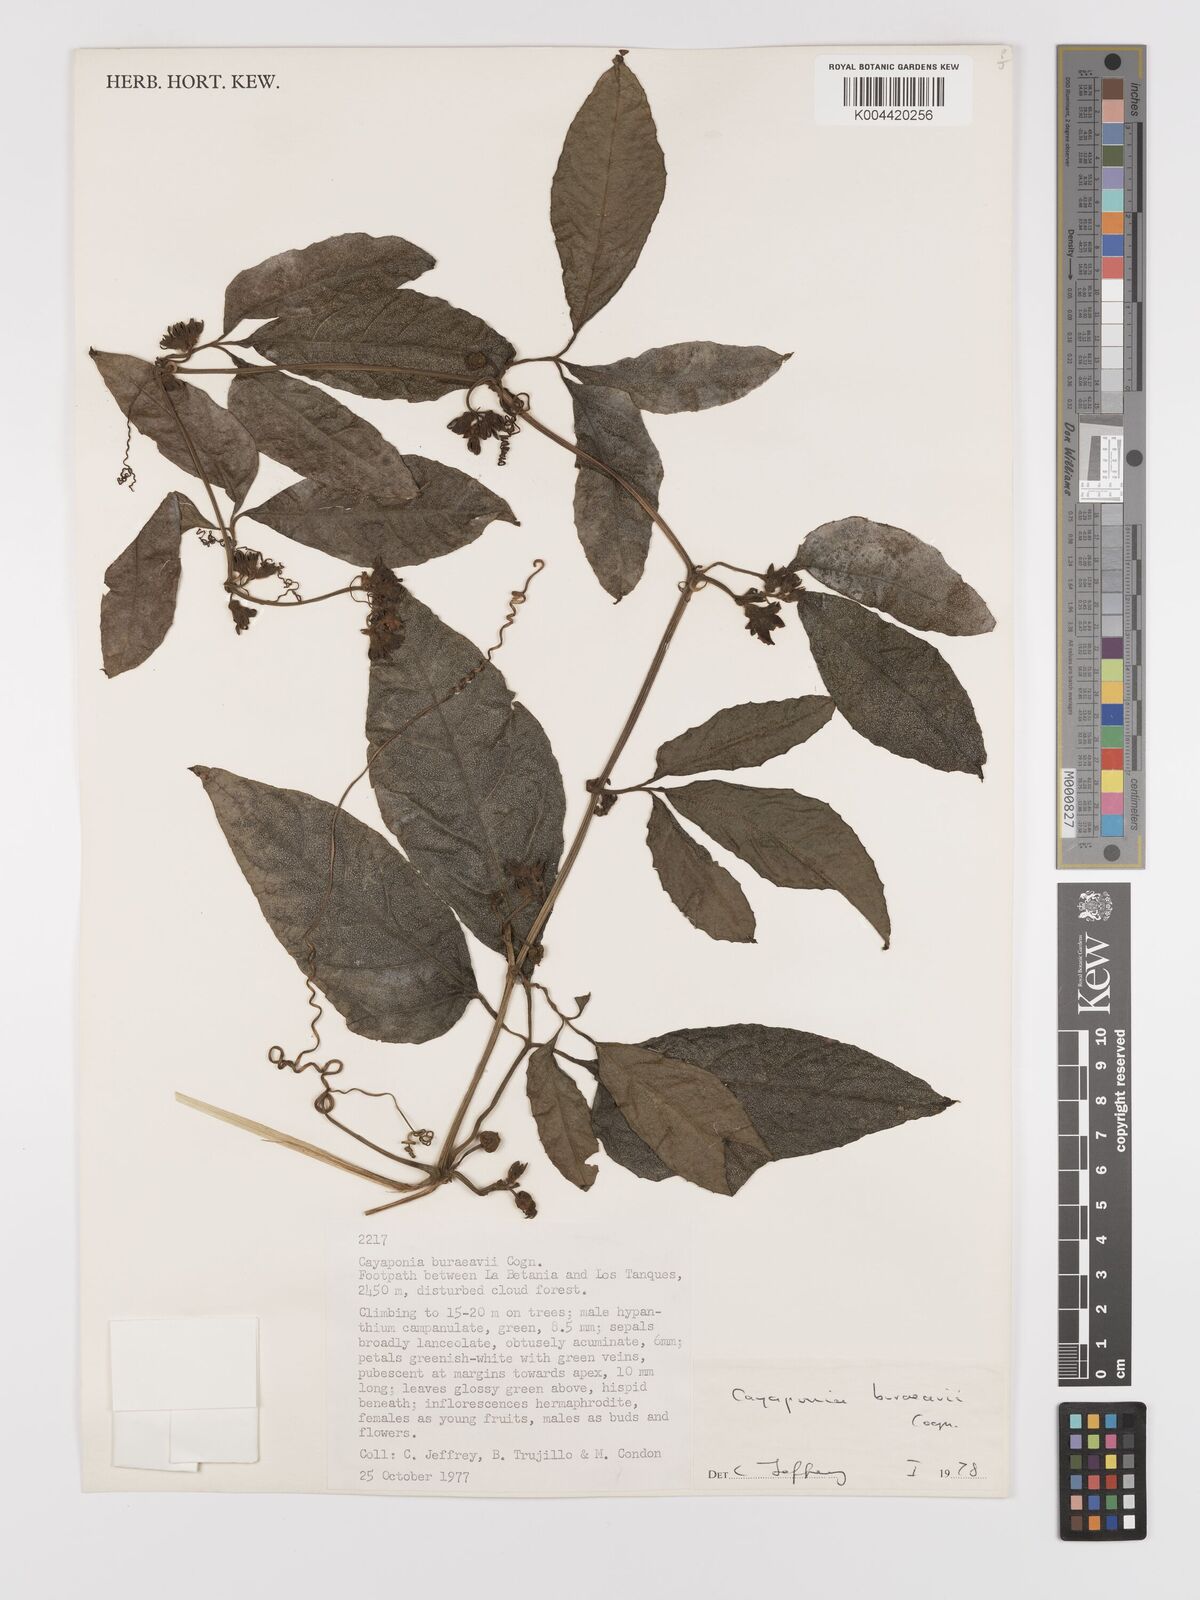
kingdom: Plantae
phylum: Tracheophyta
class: Magnoliopsida
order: Cucurbitales
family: Cucurbitaceae
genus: Cayaponia
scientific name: Cayaponia buraeavii
